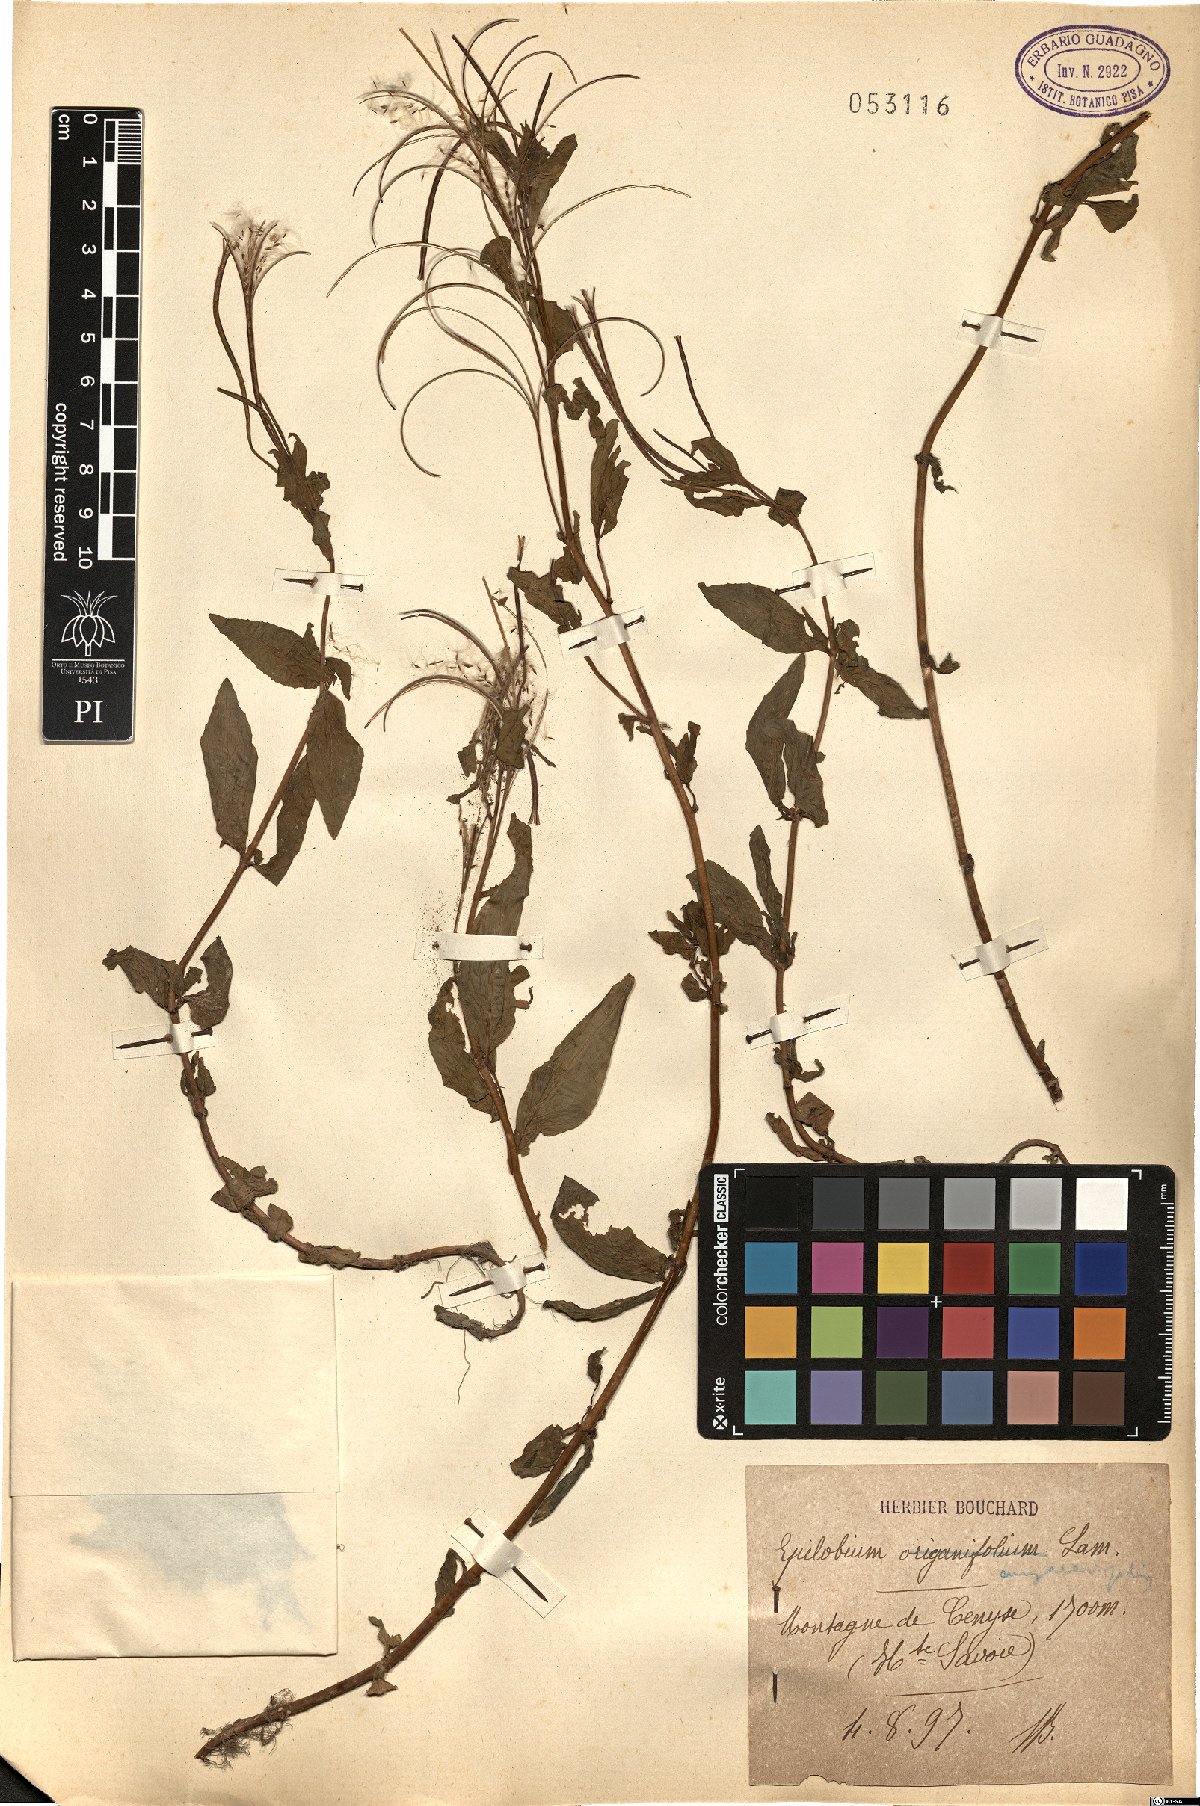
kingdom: Plantae
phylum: Tracheophyta
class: Liliopsida
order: Asparagales
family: Orchidaceae
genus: Encyclia
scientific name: Encyclia angustifolia
